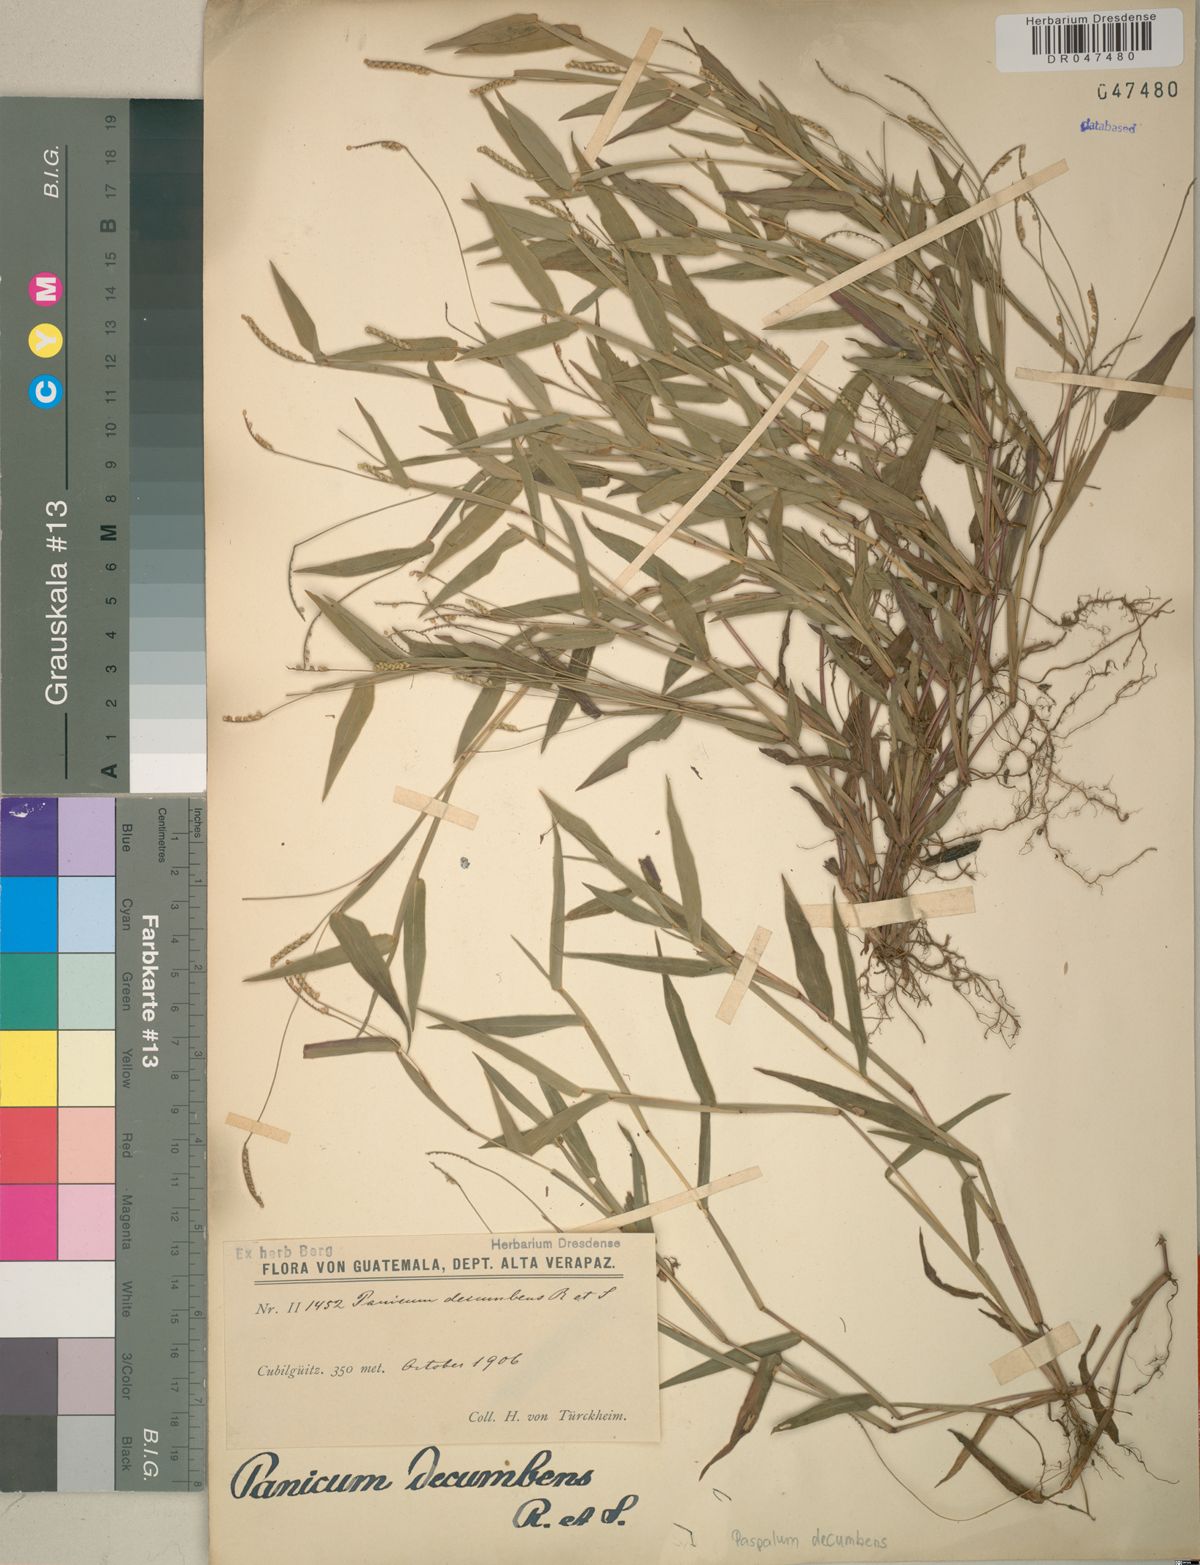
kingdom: Plantae
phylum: Tracheophyta
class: Liliopsida
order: Poales
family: Poaceae
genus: Paspalum
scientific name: Paspalum decumbens
